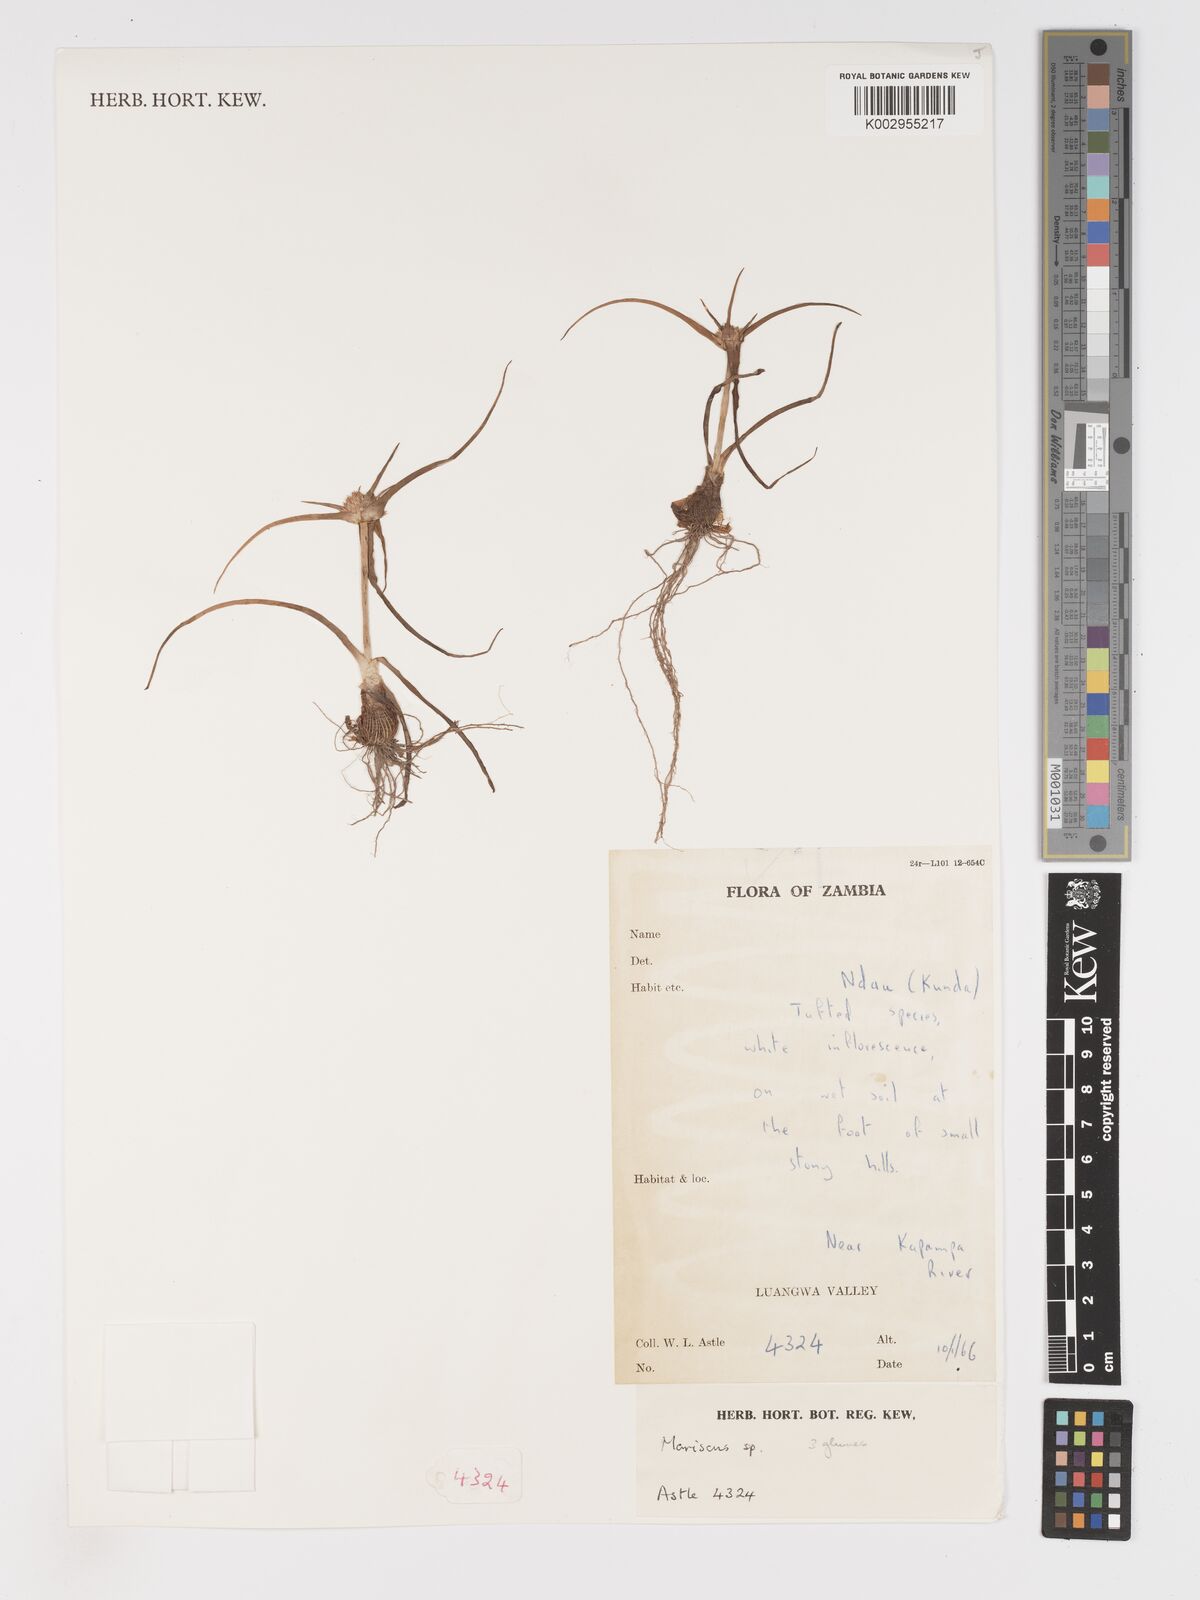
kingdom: Plantae
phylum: Tracheophyta
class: Liliopsida
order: Poales
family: Cyperaceae
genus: Cyperus
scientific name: Cyperus
